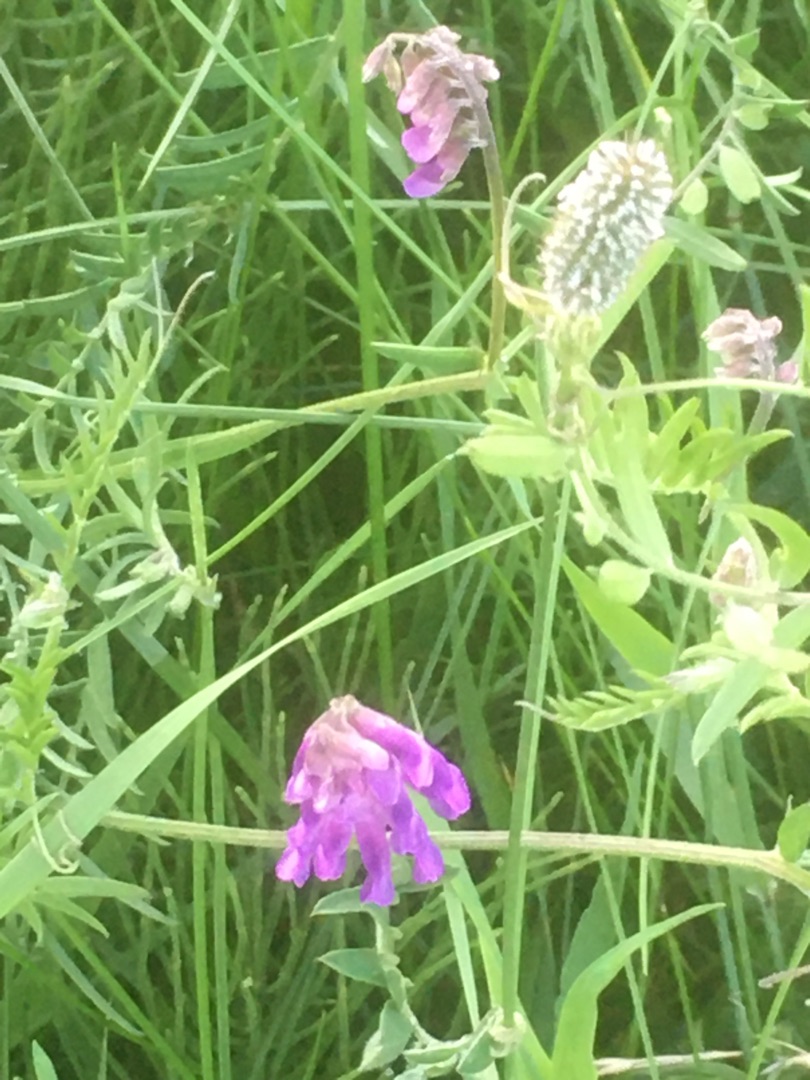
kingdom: Plantae
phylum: Tracheophyta
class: Magnoliopsida
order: Fabales
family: Fabaceae
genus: Vicia
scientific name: Vicia cracca
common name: Muse-vikke
